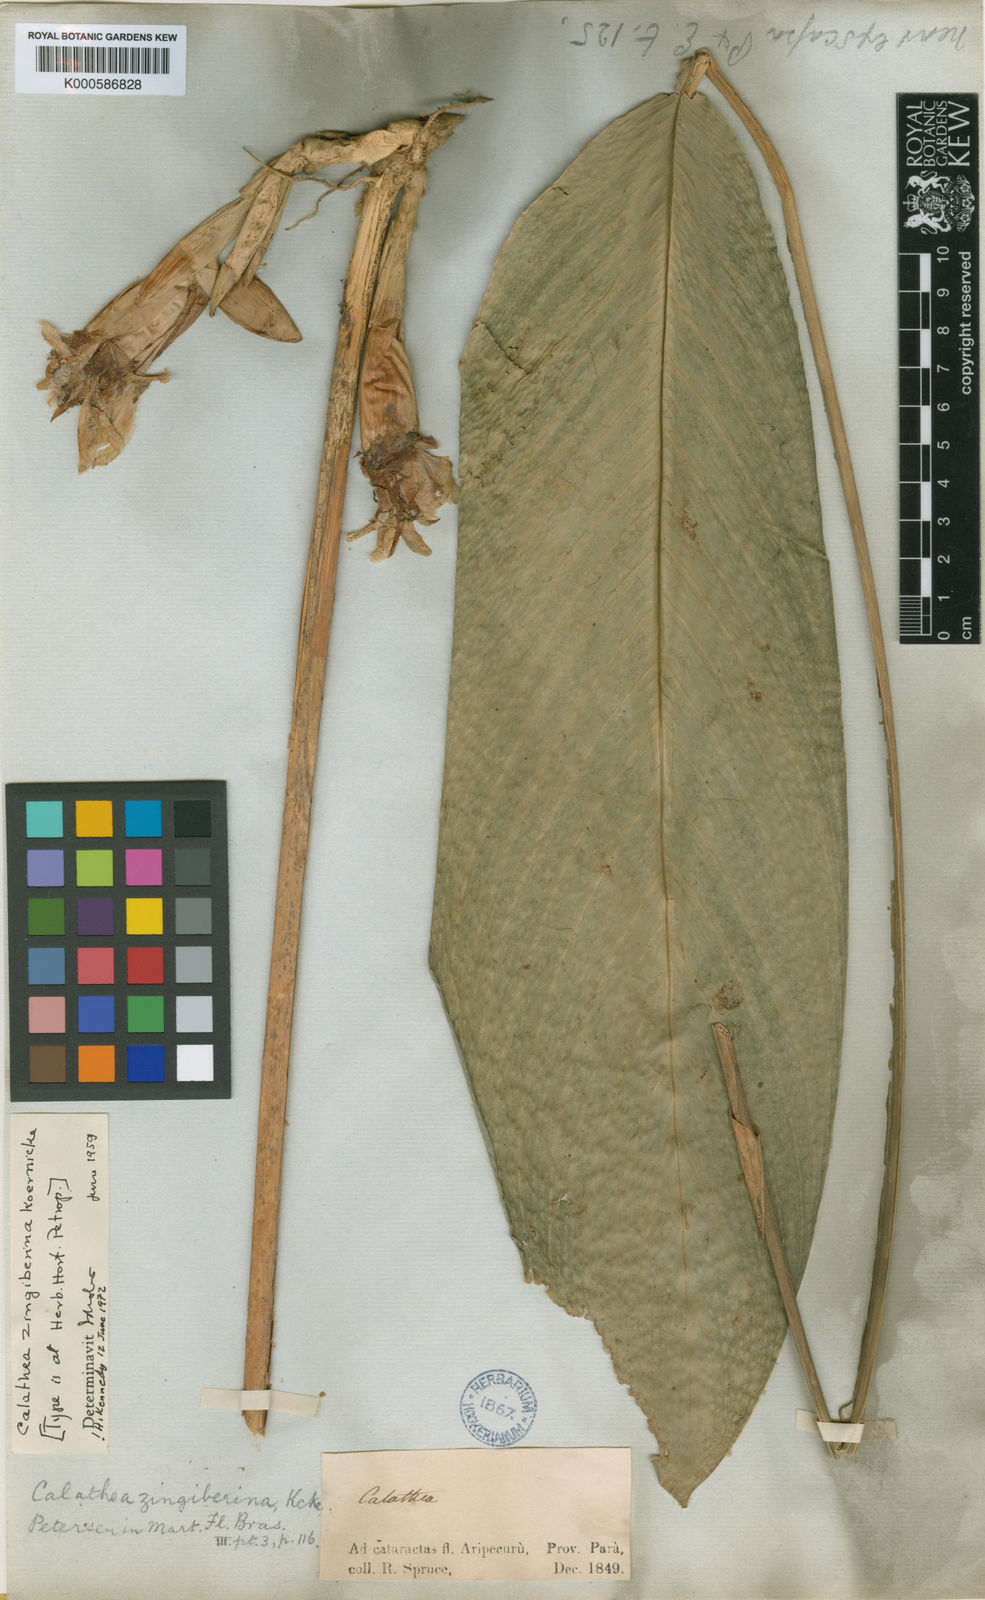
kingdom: Plantae
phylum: Tracheophyta
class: Liliopsida
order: Zingiberales
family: Marantaceae
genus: Calathea
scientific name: Calathea
